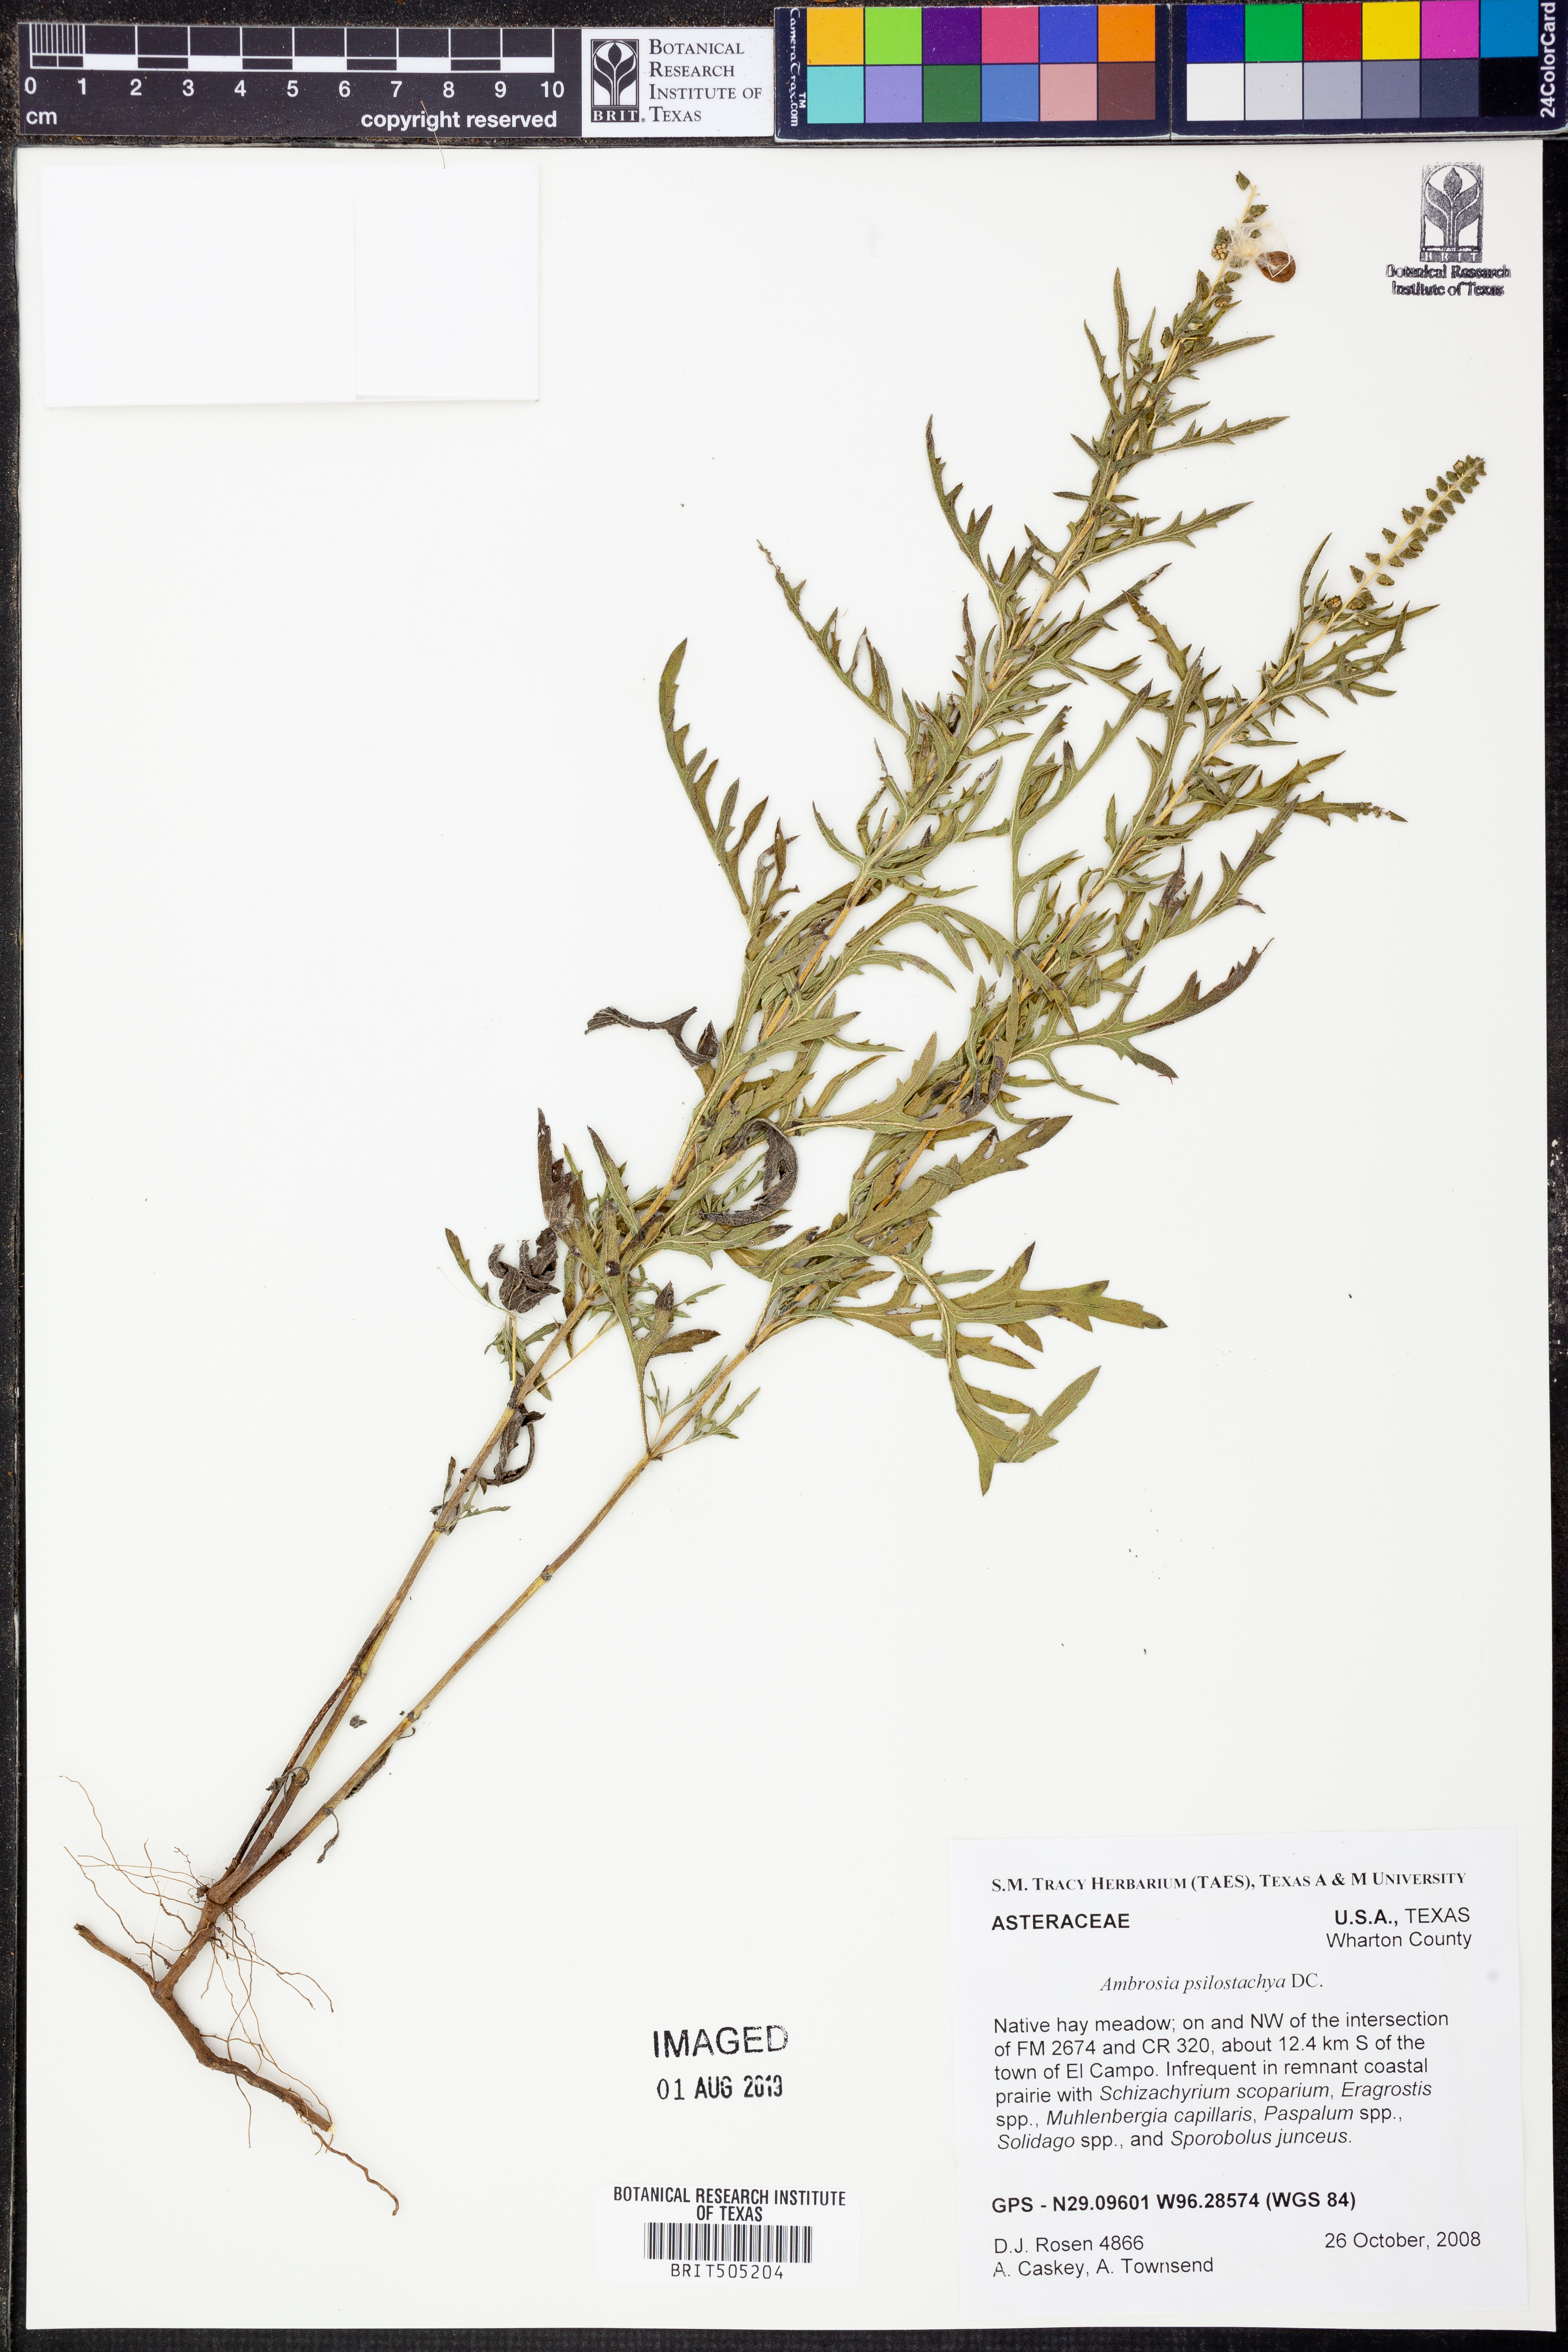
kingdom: Plantae
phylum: Tracheophyta
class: Magnoliopsida
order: Asterales
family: Asteraceae
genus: Ambrosia
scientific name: Ambrosia psilostachya
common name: Perennial ragweed
